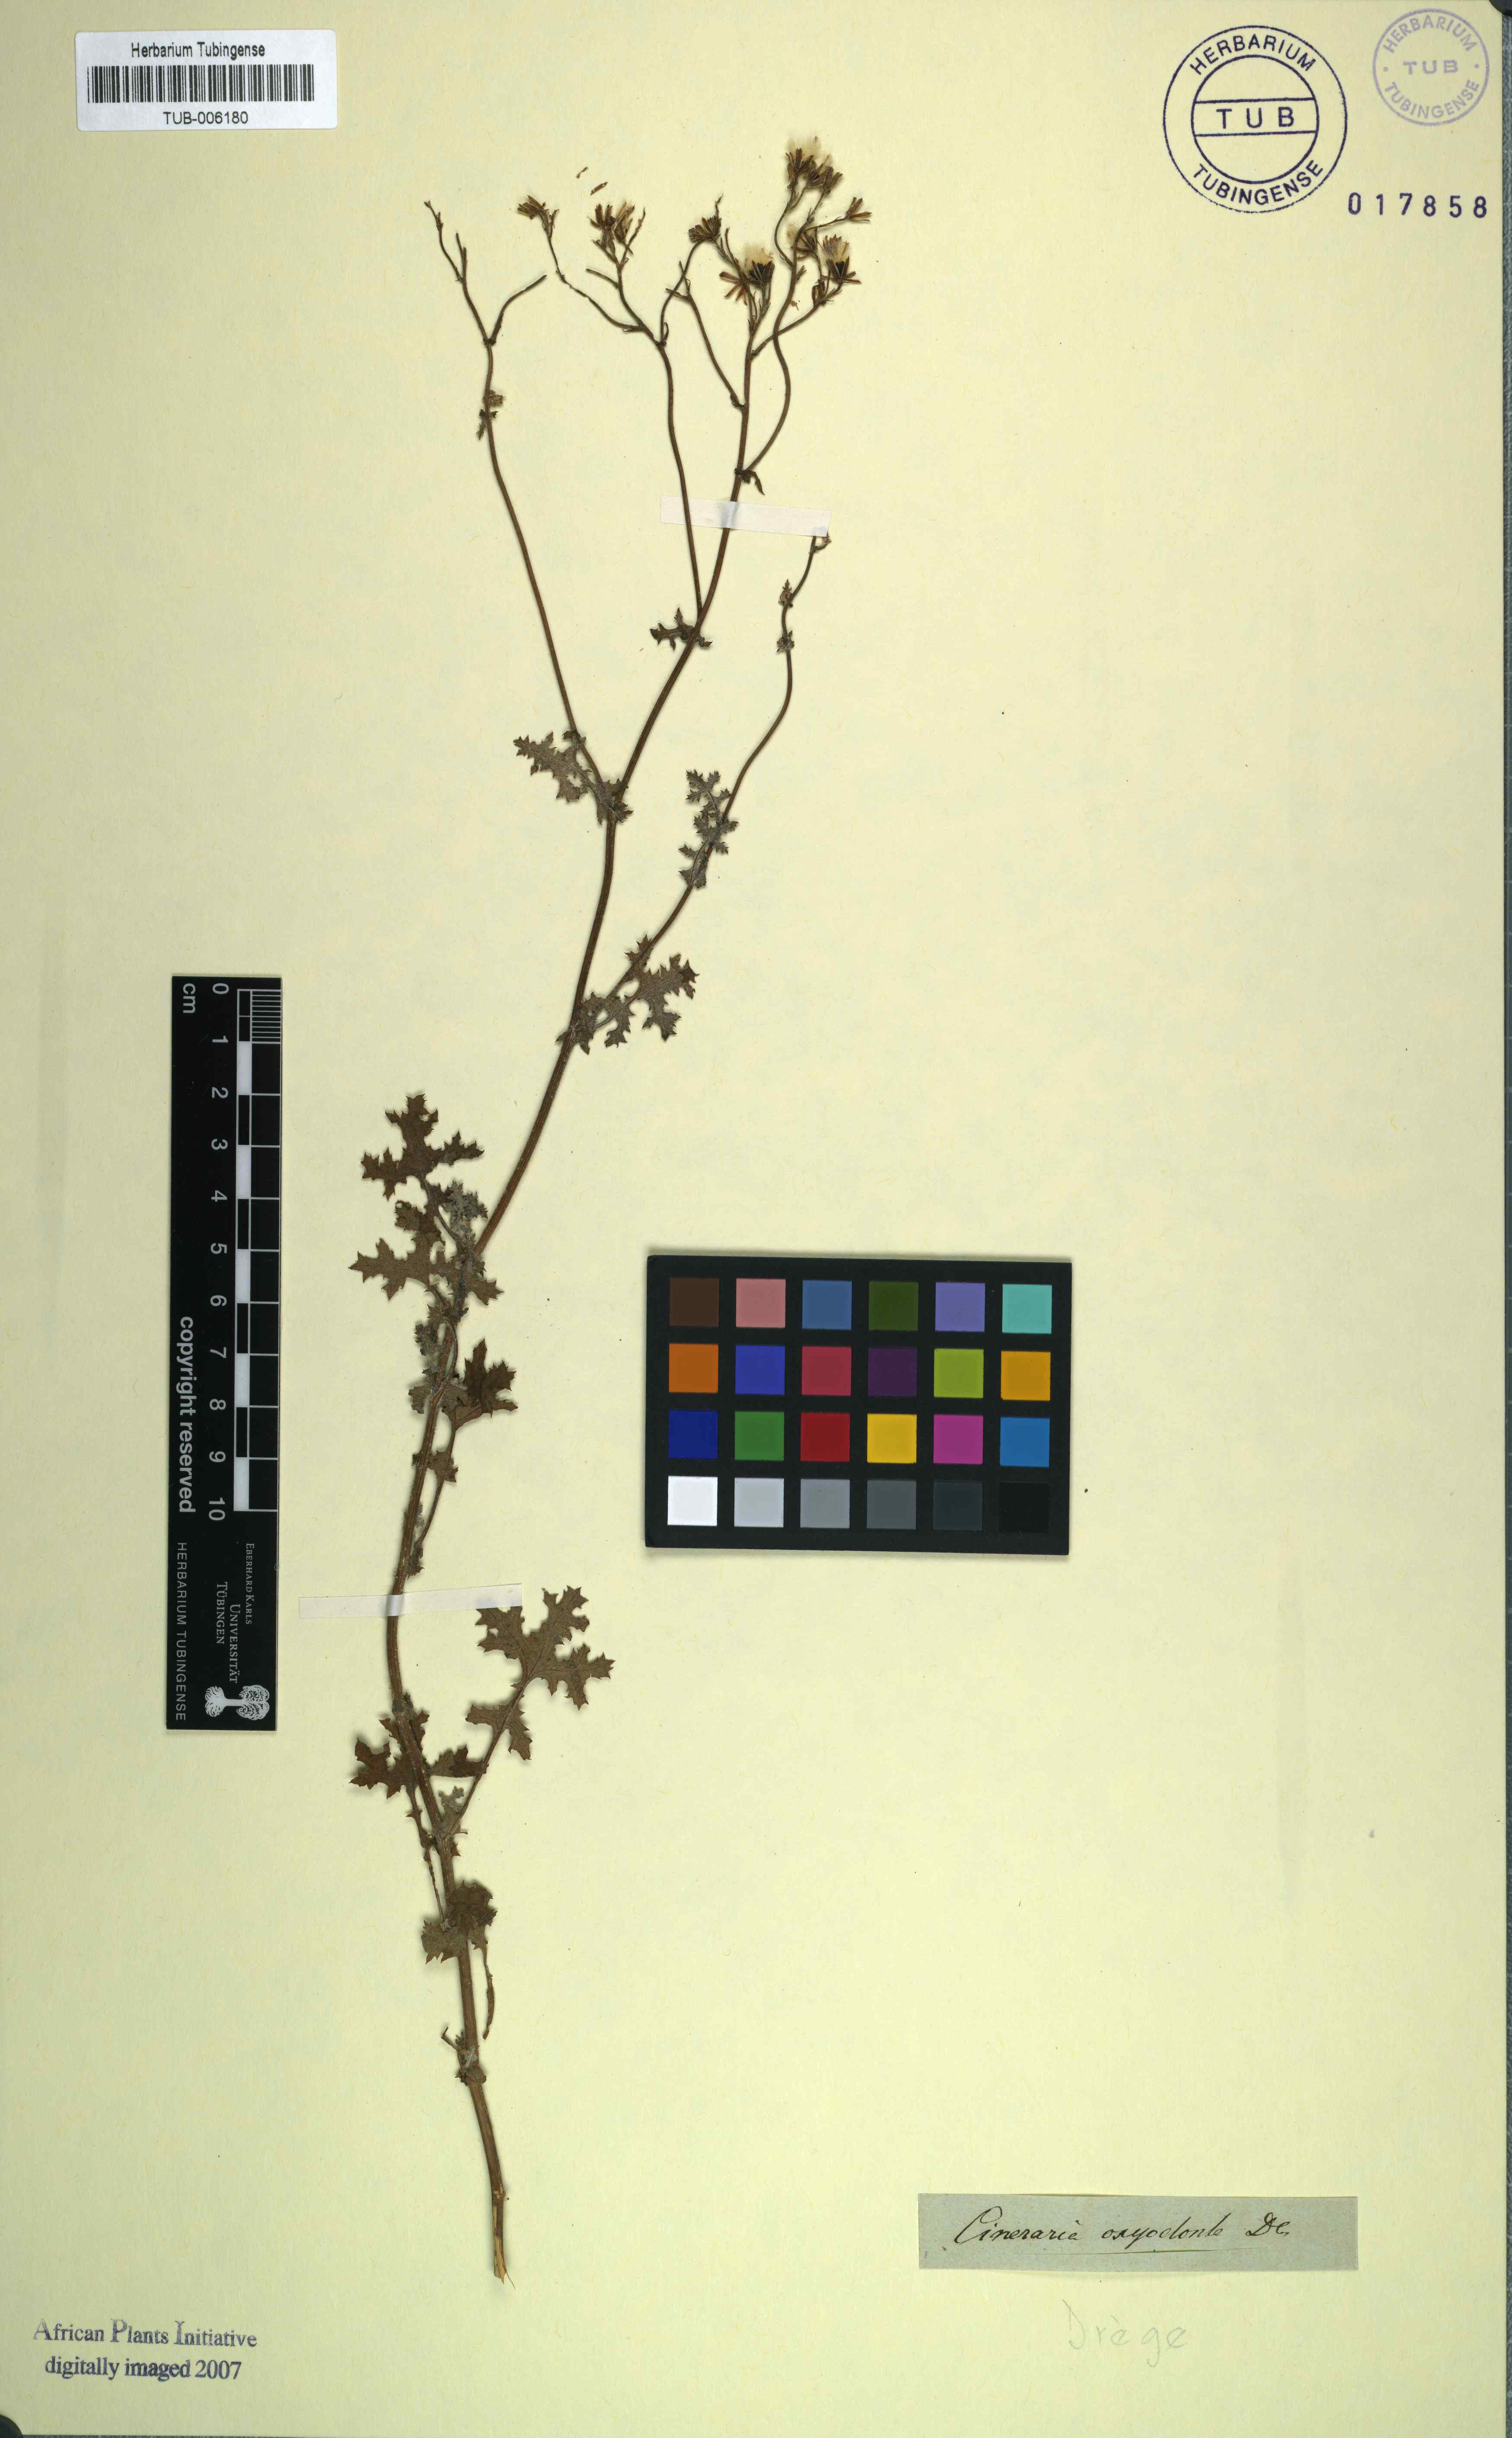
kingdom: Plantae
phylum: Tracheophyta
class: Magnoliopsida
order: Asterales
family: Asteraceae
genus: Cineraria
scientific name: Cineraria erosa
